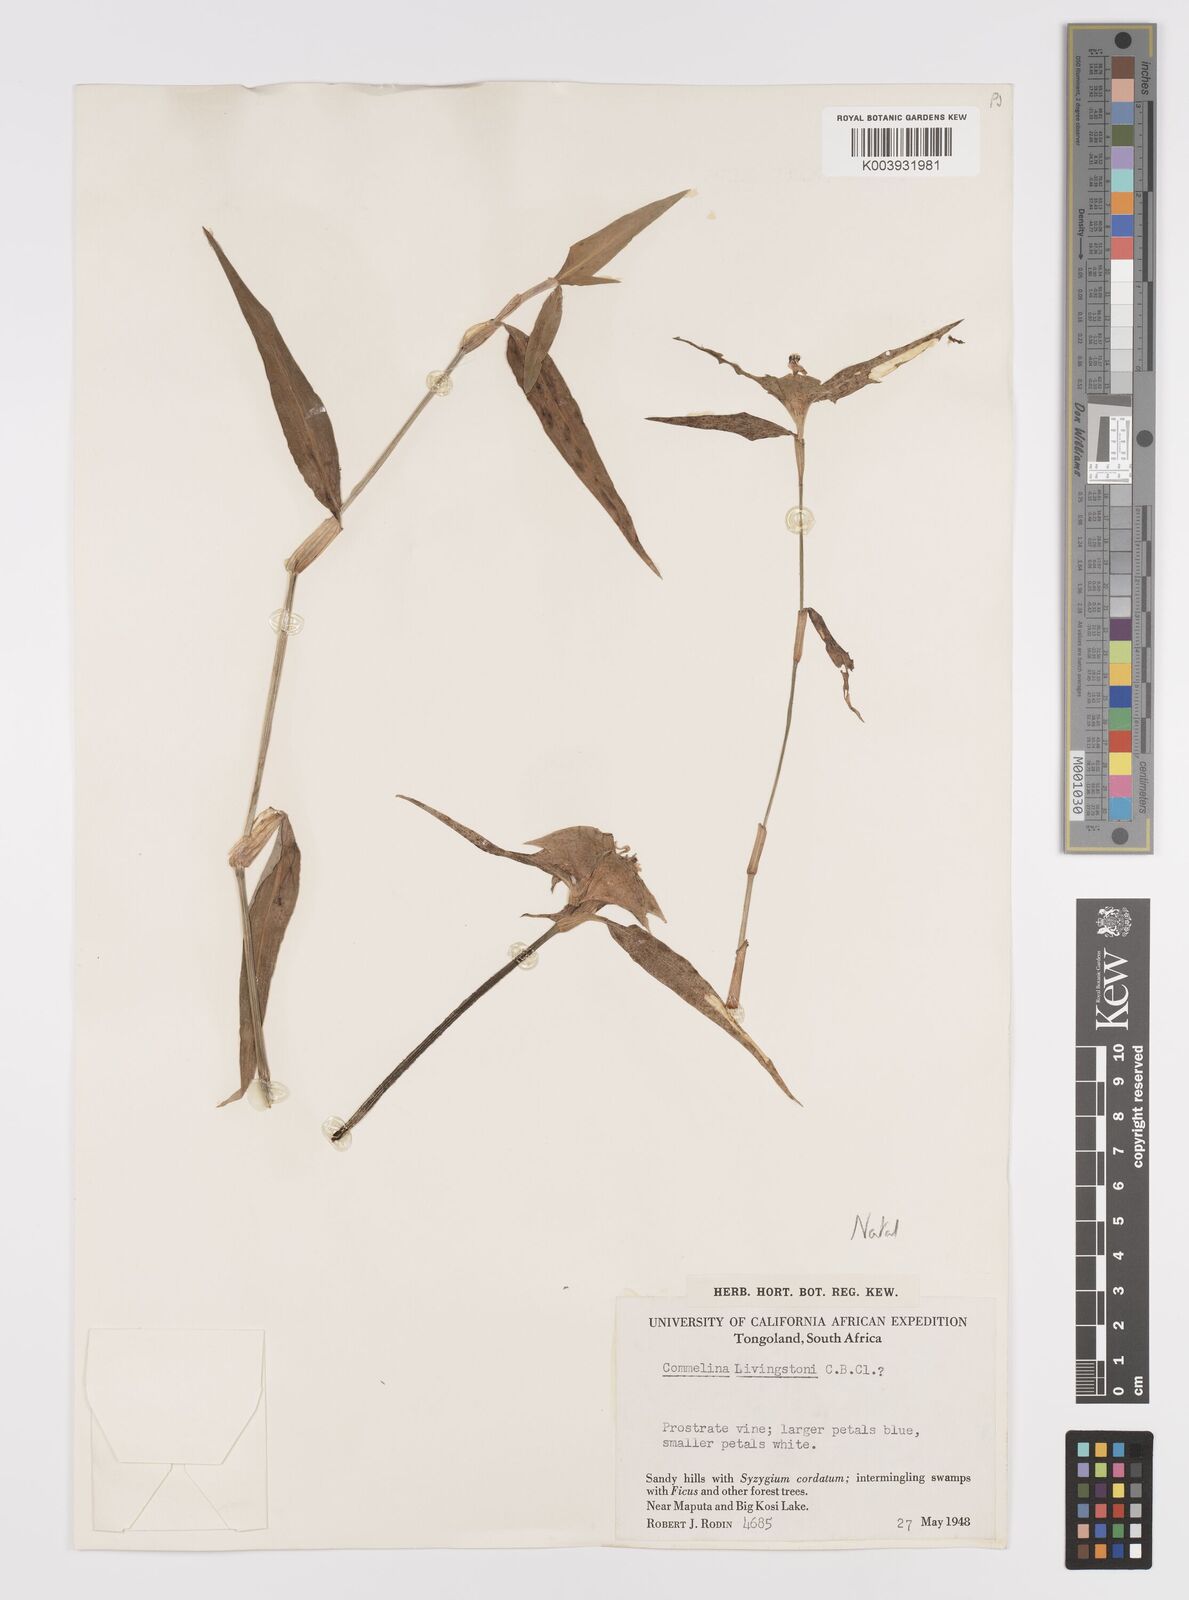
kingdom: Plantae
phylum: Tracheophyta
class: Liliopsida
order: Commelinales
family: Commelinaceae
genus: Commelina
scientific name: Commelina erecta
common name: Blousel blommetjie
